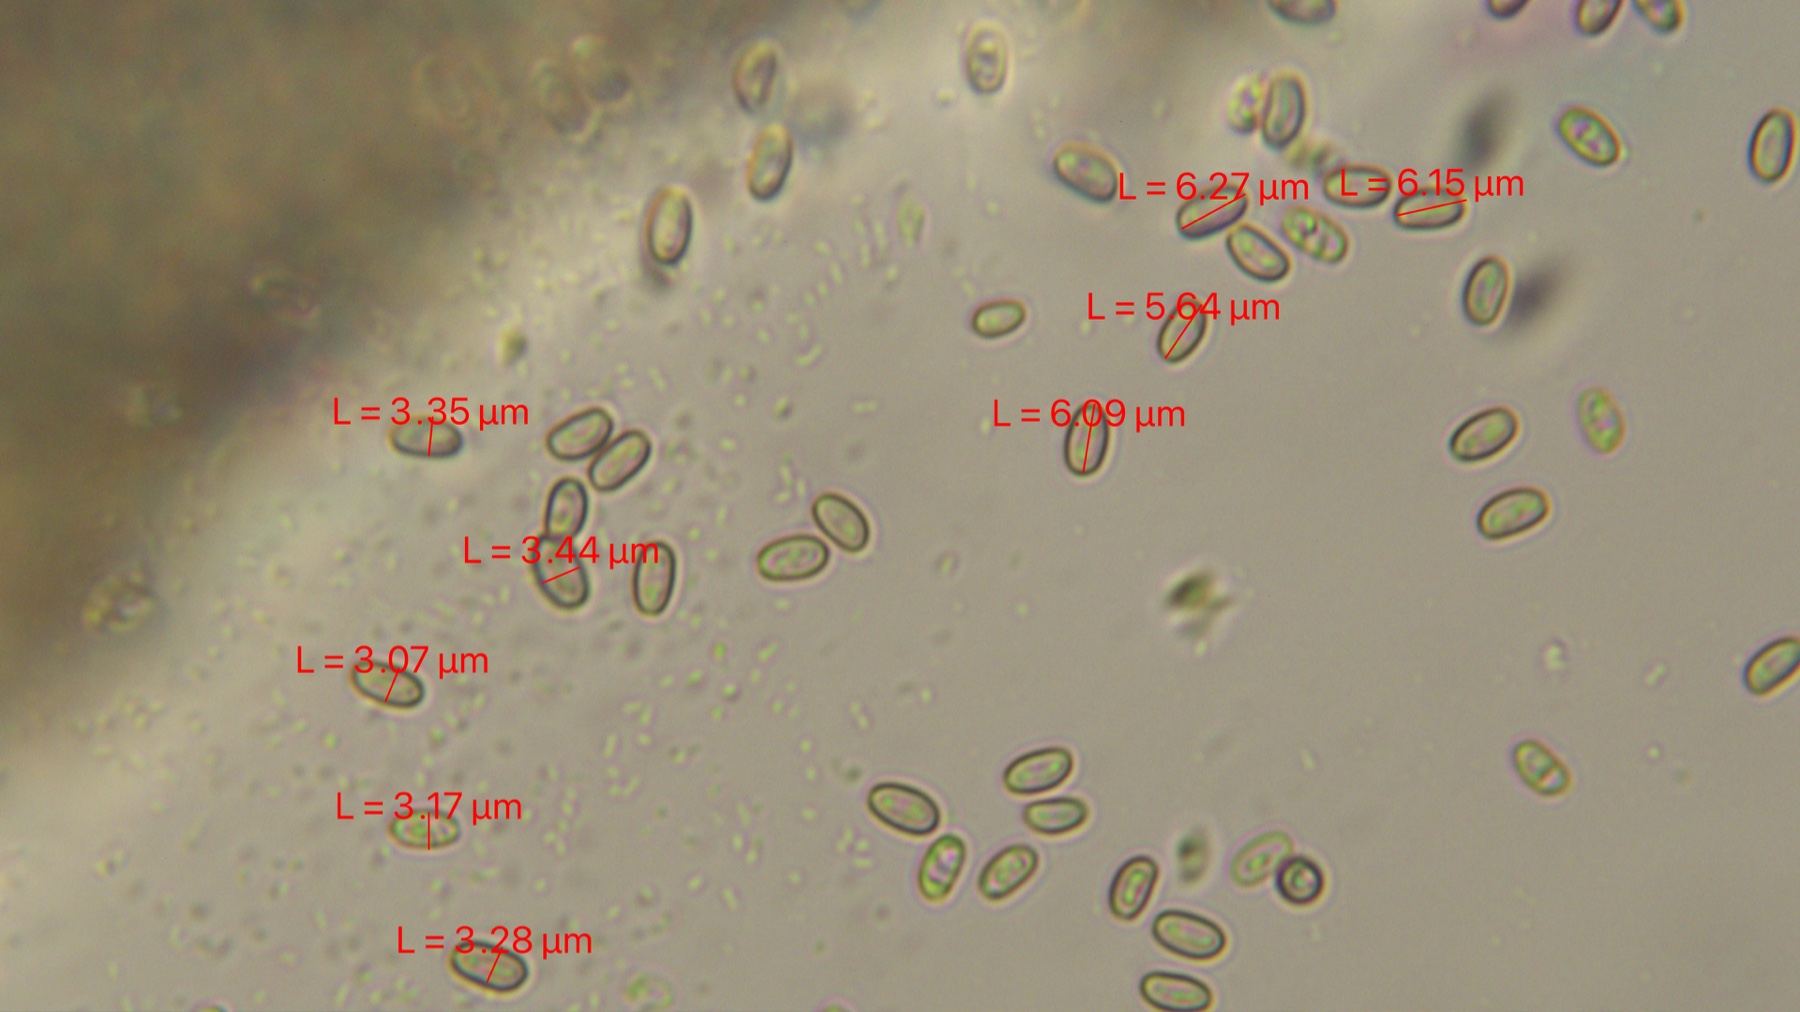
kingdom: Fungi
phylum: Basidiomycota
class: Agaricomycetes
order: Agaricales
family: Strophariaceae
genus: Pholiota
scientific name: Pholiota conissans
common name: pile-skælhat
